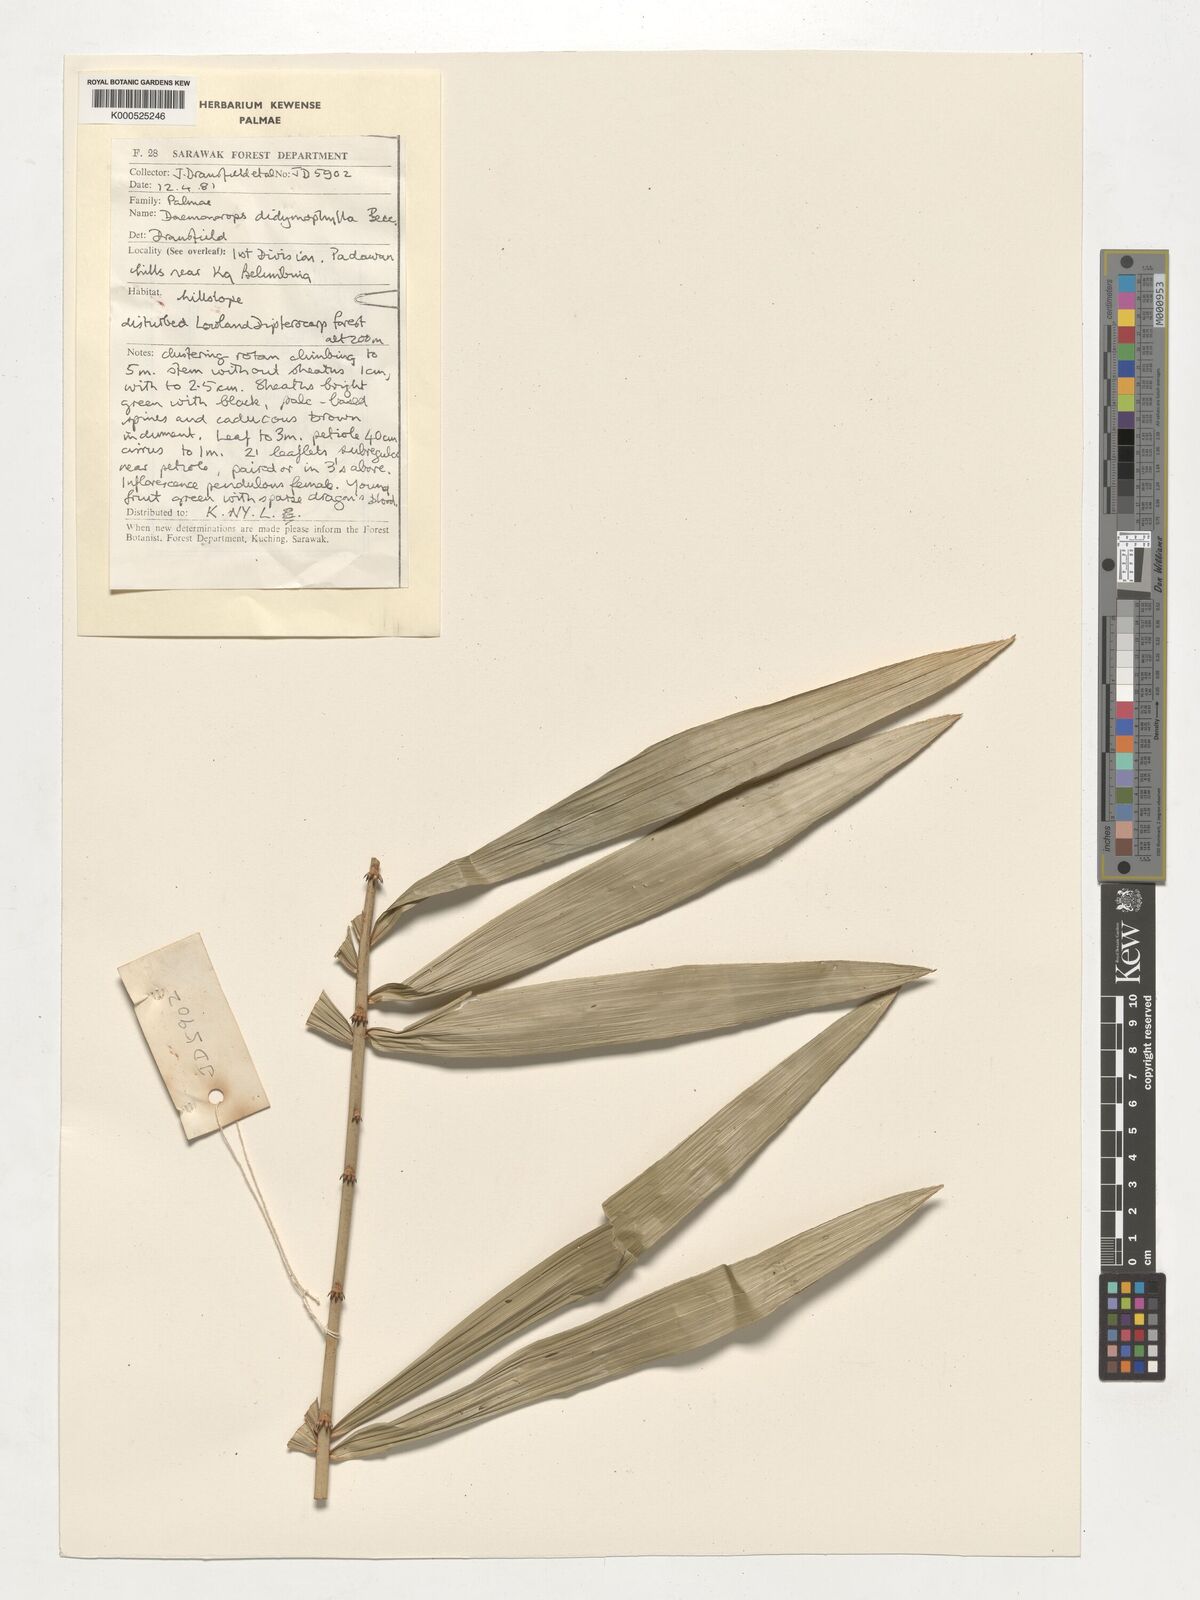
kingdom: Plantae
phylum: Tracheophyta
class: Liliopsida
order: Arecales
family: Arecaceae
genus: Calamus
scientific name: Calamus gracilipes
